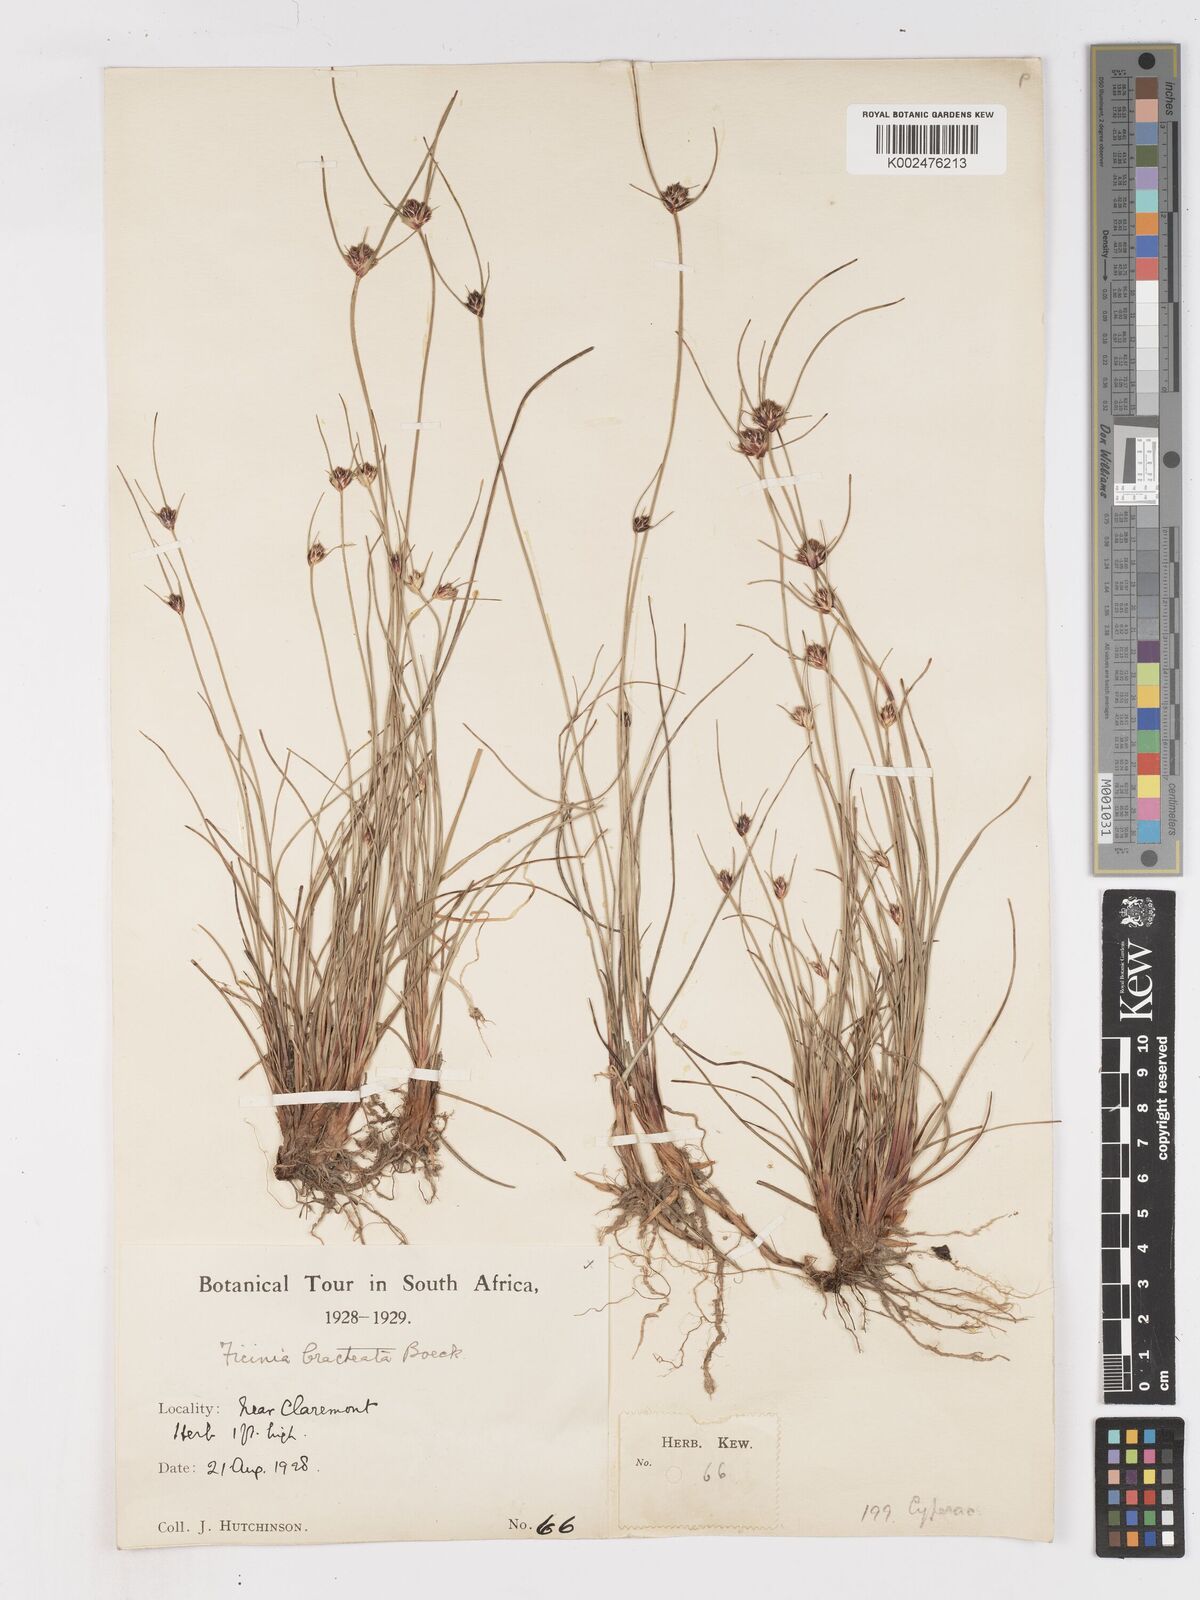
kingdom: Plantae
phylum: Tracheophyta
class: Liliopsida
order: Poales
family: Cyperaceae
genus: Ficinia
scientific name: Ficinia nigrescens
